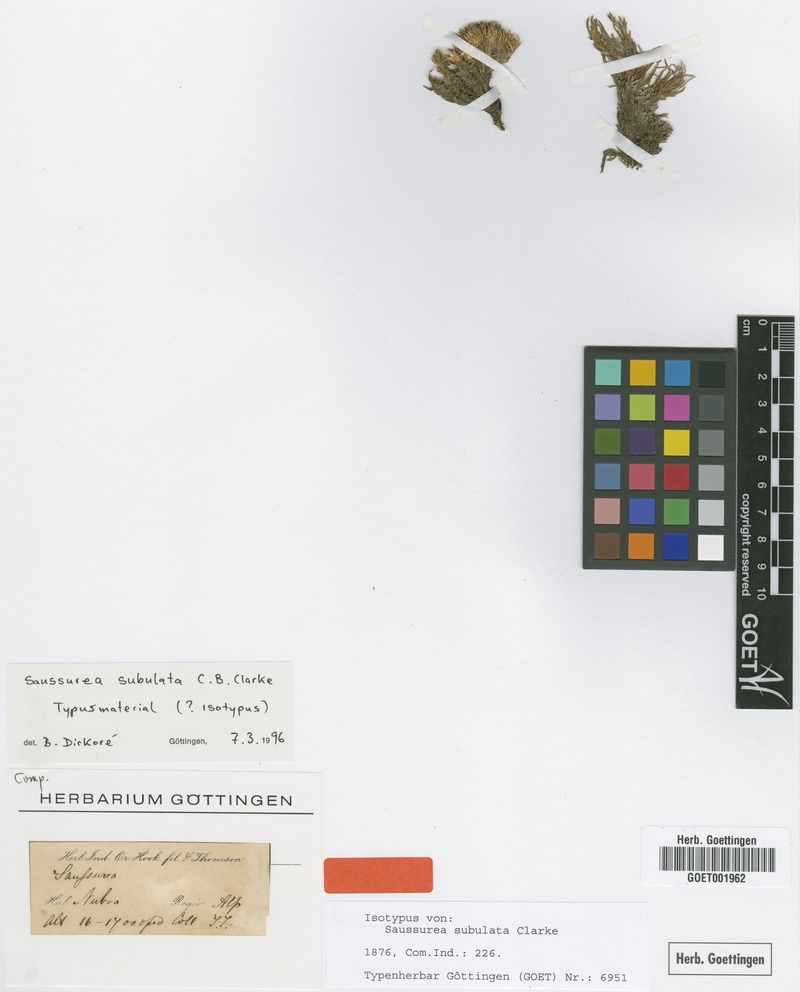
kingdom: Plantae
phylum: Tracheophyta
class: Magnoliopsida
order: Asterales
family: Asteraceae
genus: Saussurea
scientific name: Saussurea subulata
